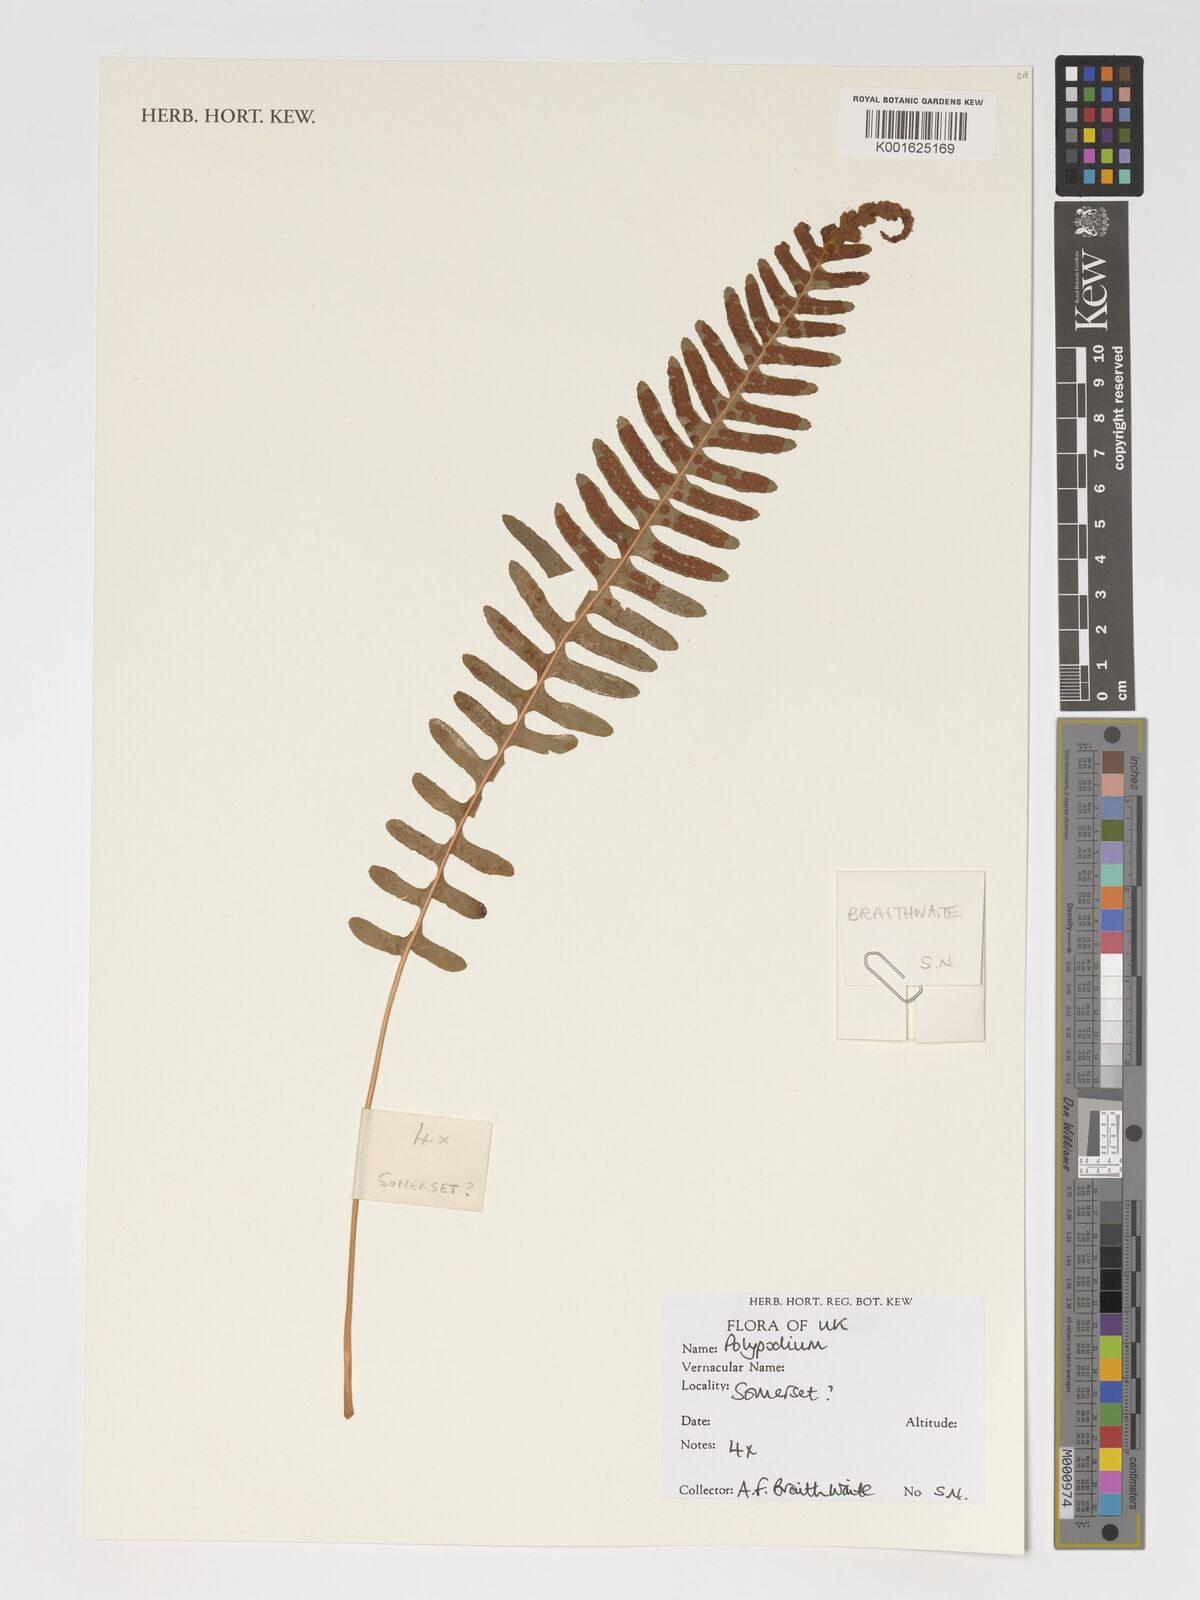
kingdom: Plantae
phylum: Tracheophyta
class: Polypodiopsida
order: Polypodiales
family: Polypodiaceae
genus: Polypodium
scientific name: Polypodium
